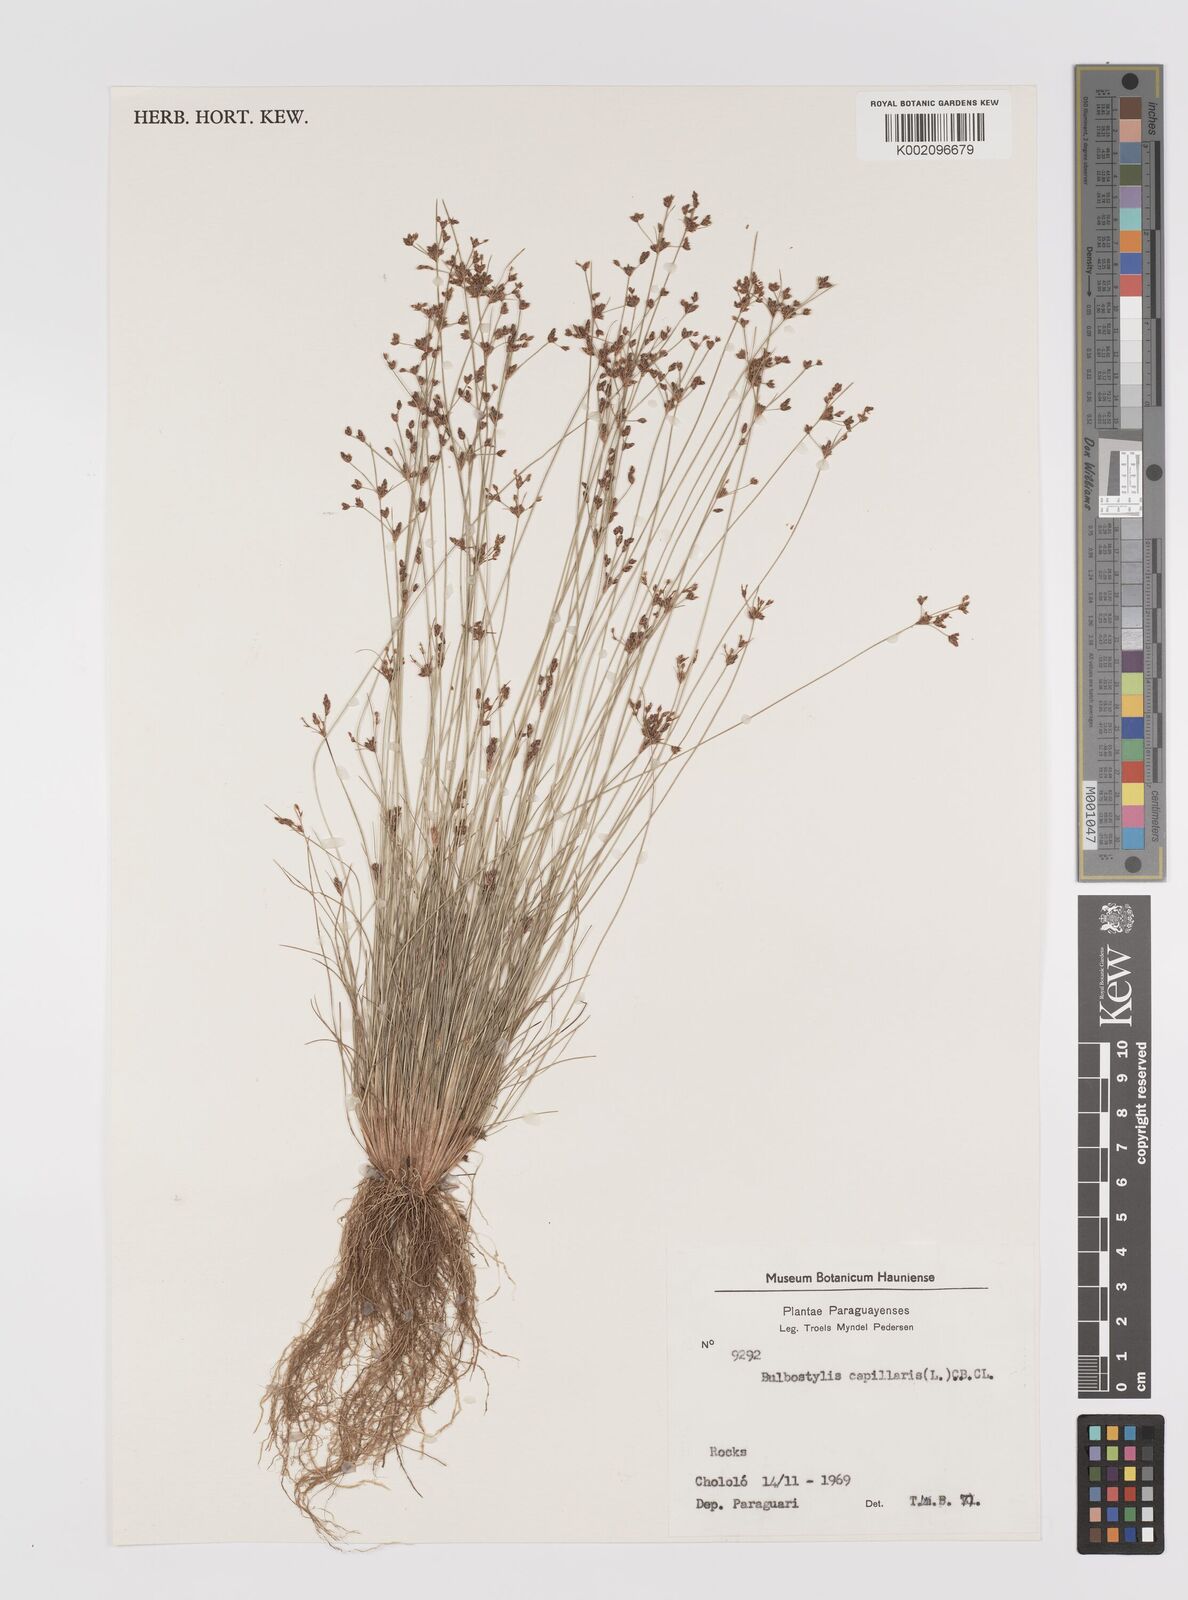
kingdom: Plantae
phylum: Tracheophyta
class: Liliopsida
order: Poales
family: Cyperaceae
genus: Bulbostylis
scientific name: Bulbostylis capillaris
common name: Densetuft hairsedge
